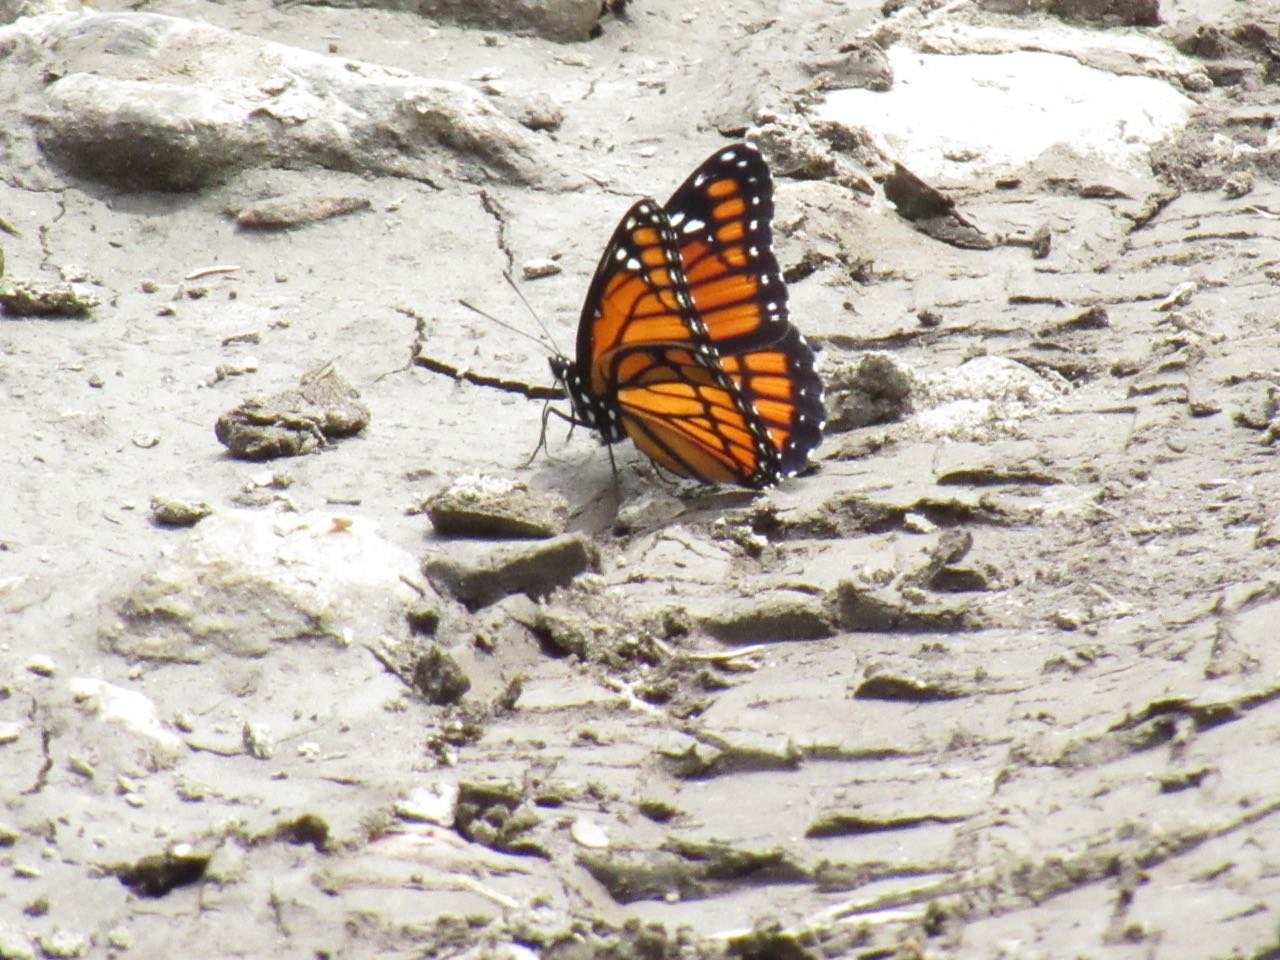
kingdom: Animalia
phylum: Arthropoda
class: Insecta
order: Lepidoptera
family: Nymphalidae
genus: Limenitis
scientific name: Limenitis archippus
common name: Viceroy
